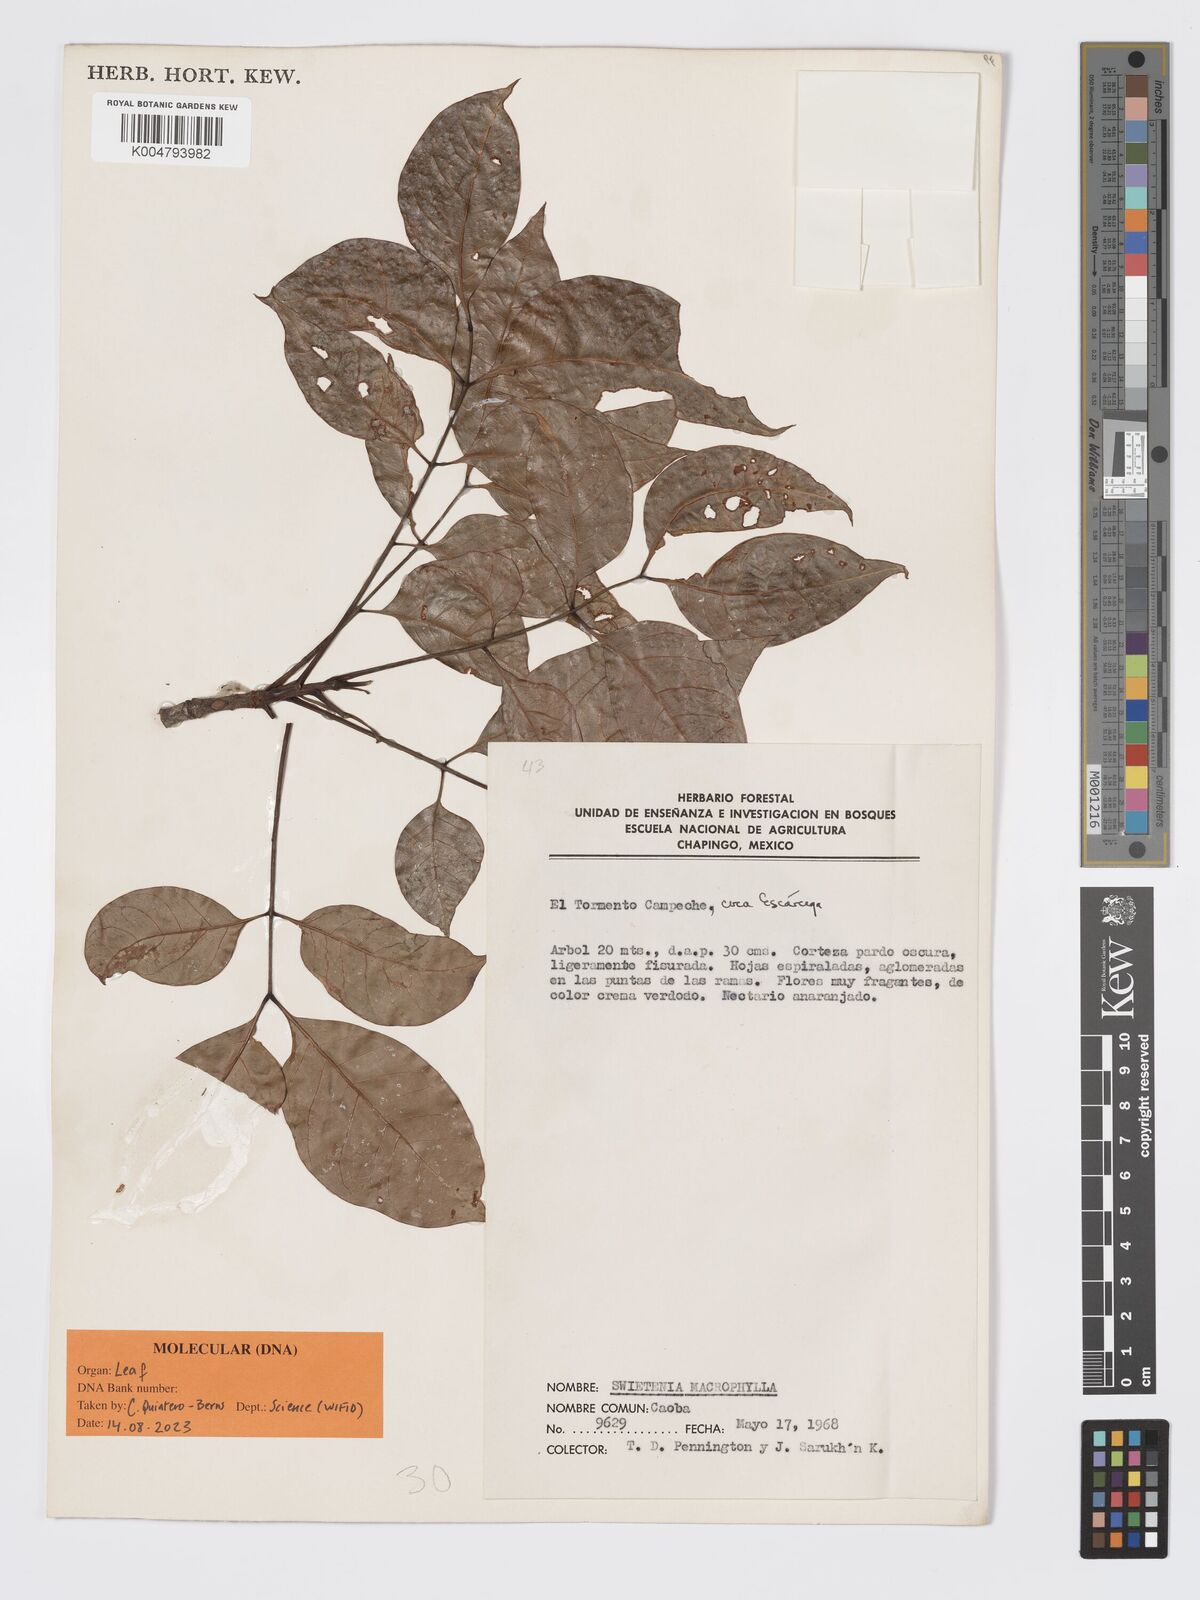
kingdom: Plantae
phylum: Tracheophyta
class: Magnoliopsida
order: Sapindales
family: Meliaceae
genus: Swietenia
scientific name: Swietenia macrophylla
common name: Honduras mahogany
